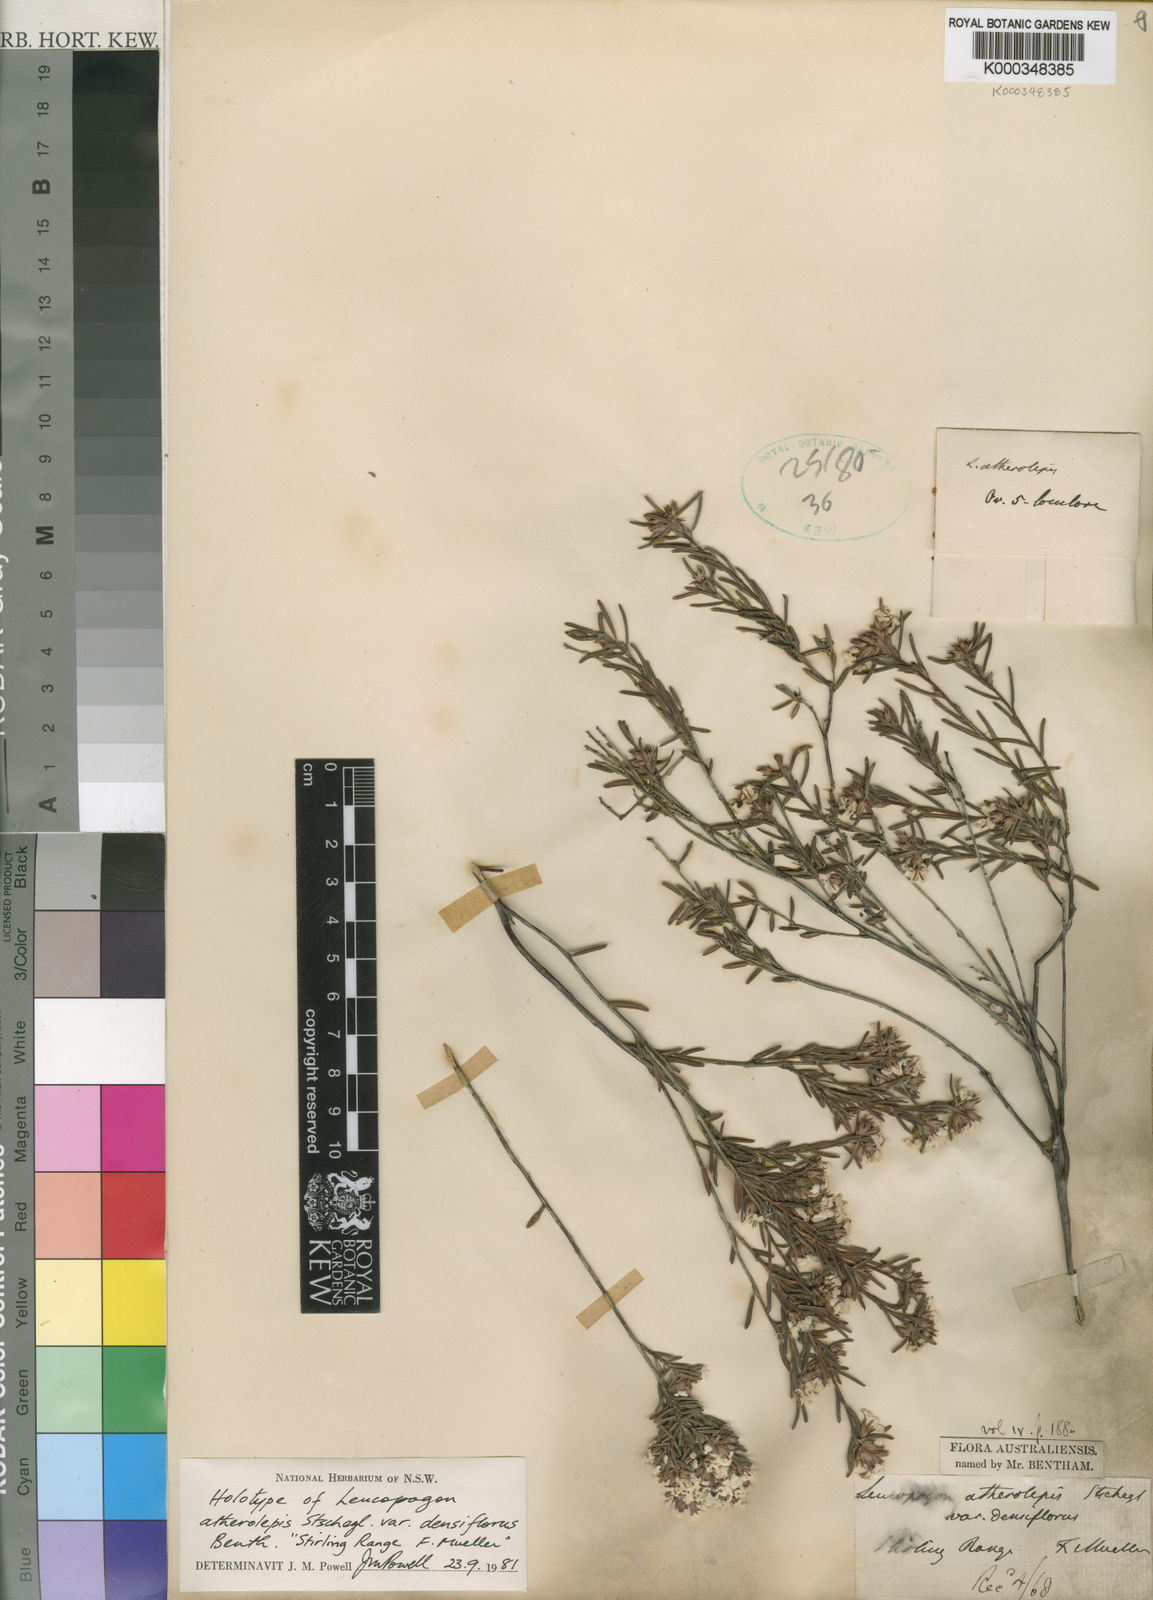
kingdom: Plantae
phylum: Tracheophyta
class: Magnoliopsida
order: Ericales
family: Ericaceae
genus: Leucopogon
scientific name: Leucopogon atherolepis
